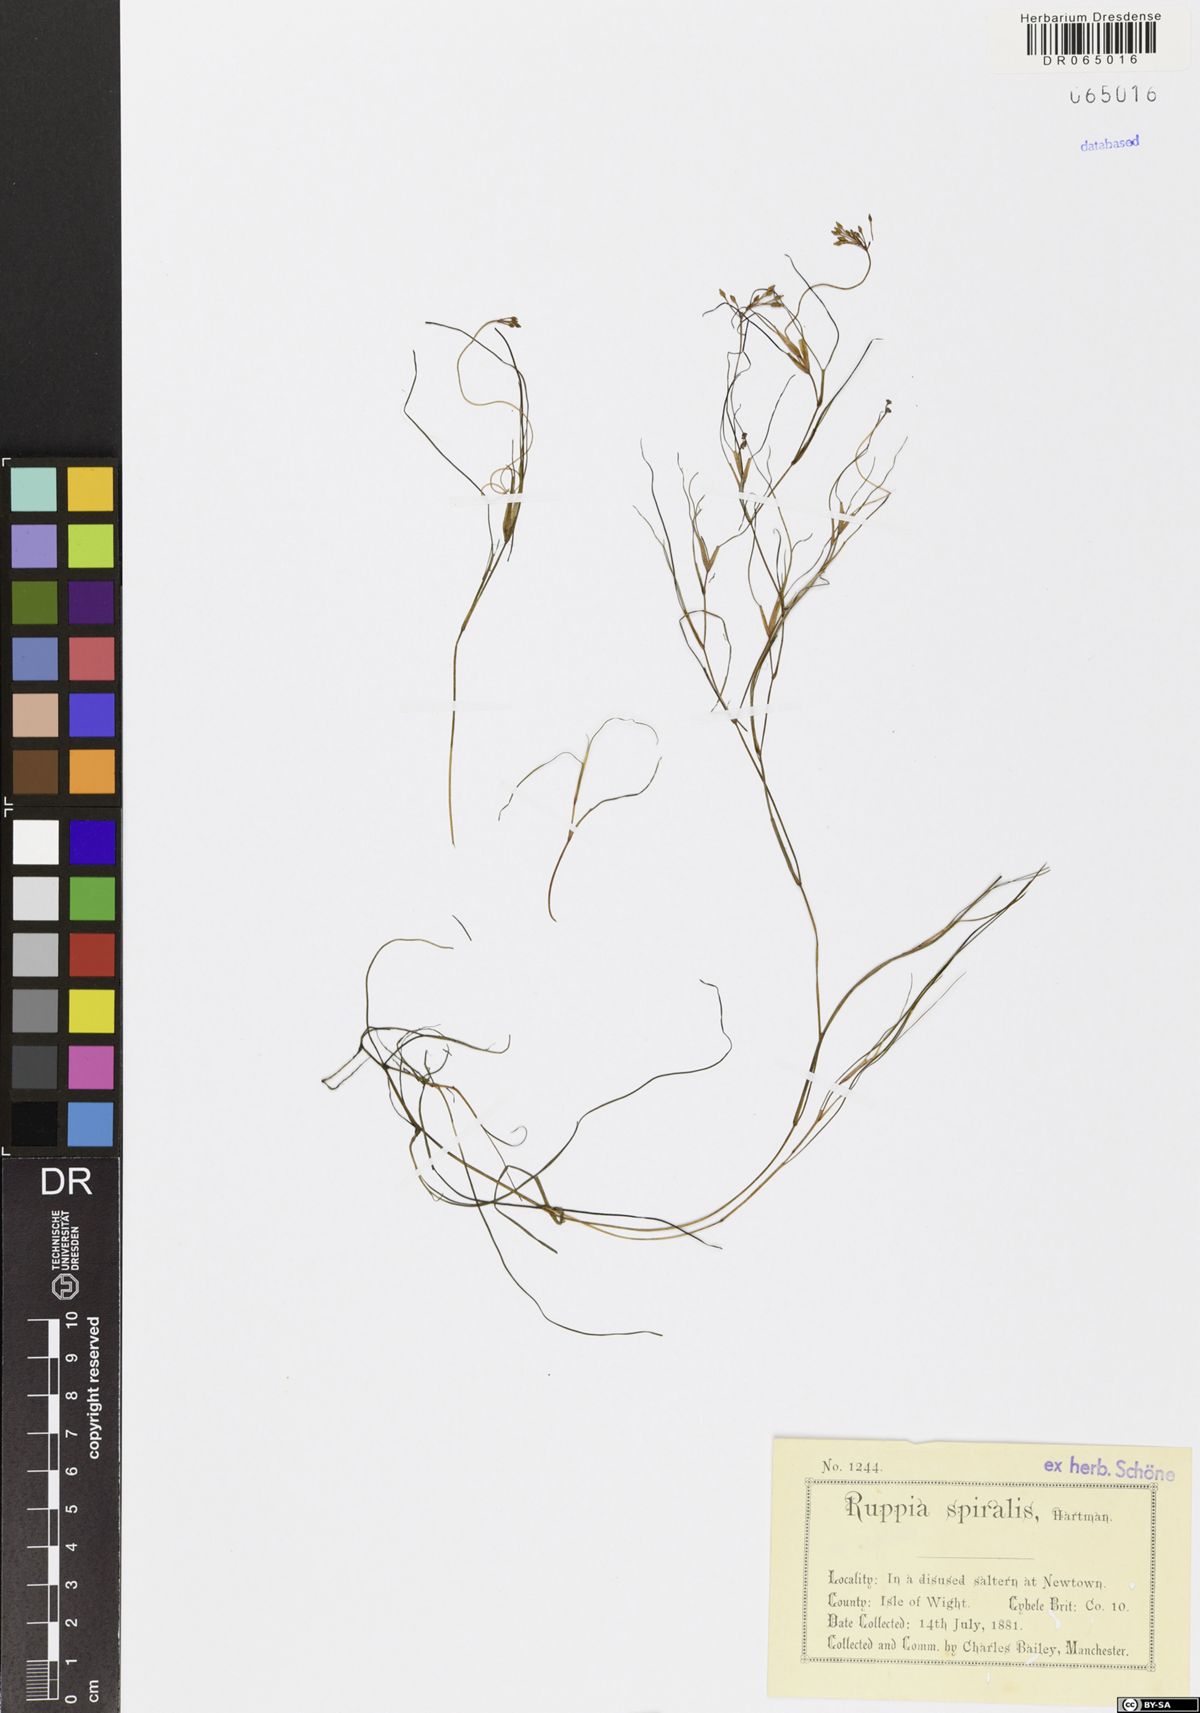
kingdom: Plantae
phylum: Tracheophyta
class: Liliopsida
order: Alismatales
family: Ruppiaceae
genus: Ruppia
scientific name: Ruppia cirrhosa
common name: Spiral tasselweed
